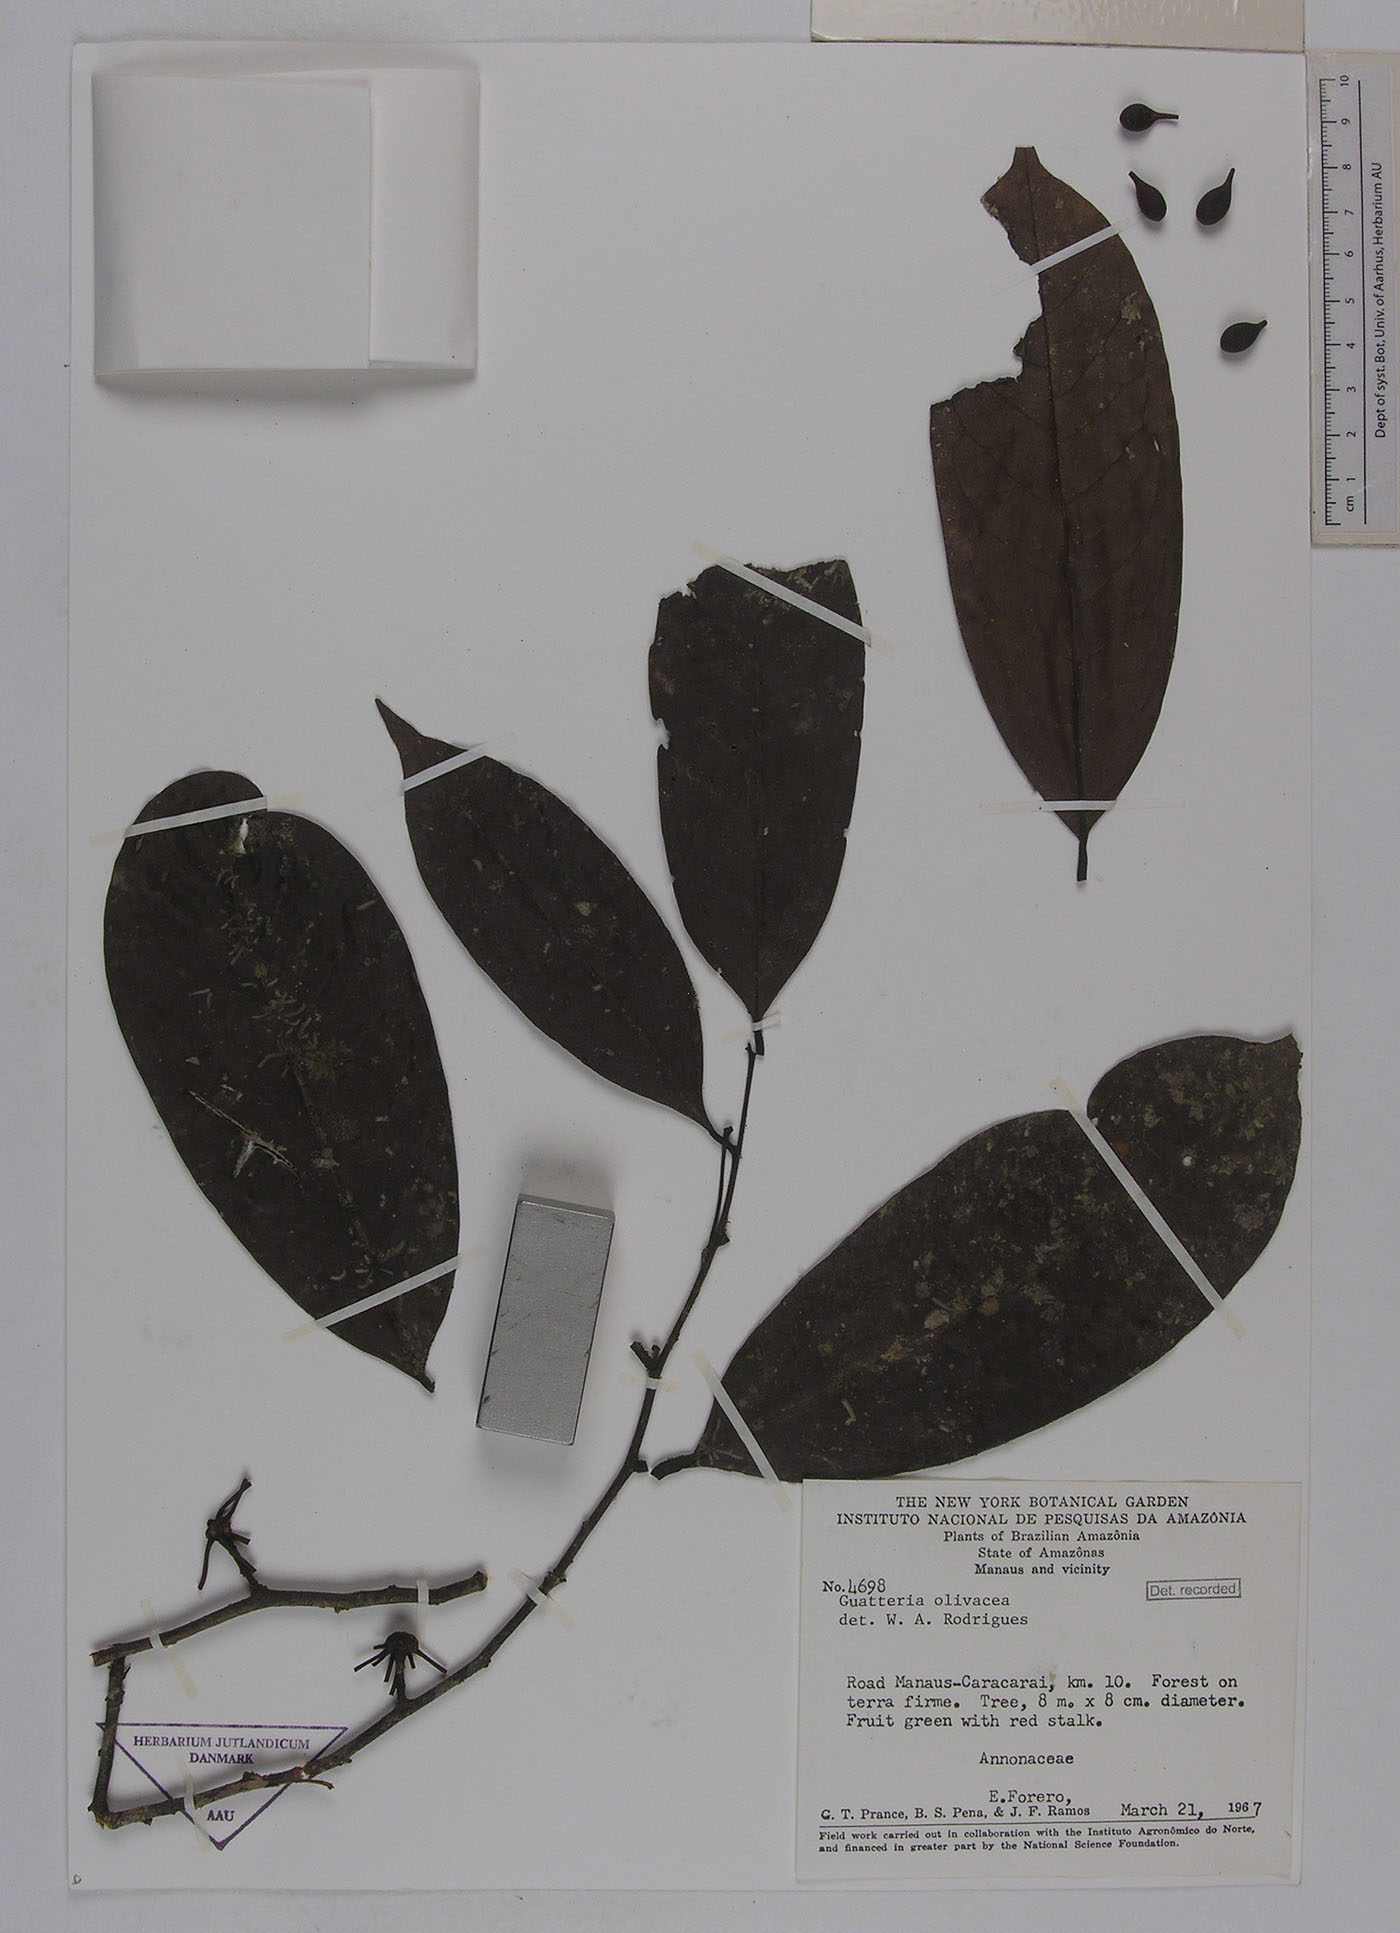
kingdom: Plantae
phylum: Tracheophyta
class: Magnoliopsida
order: Magnoliales
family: Annonaceae
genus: Guatteria
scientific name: Guatteria punctata
